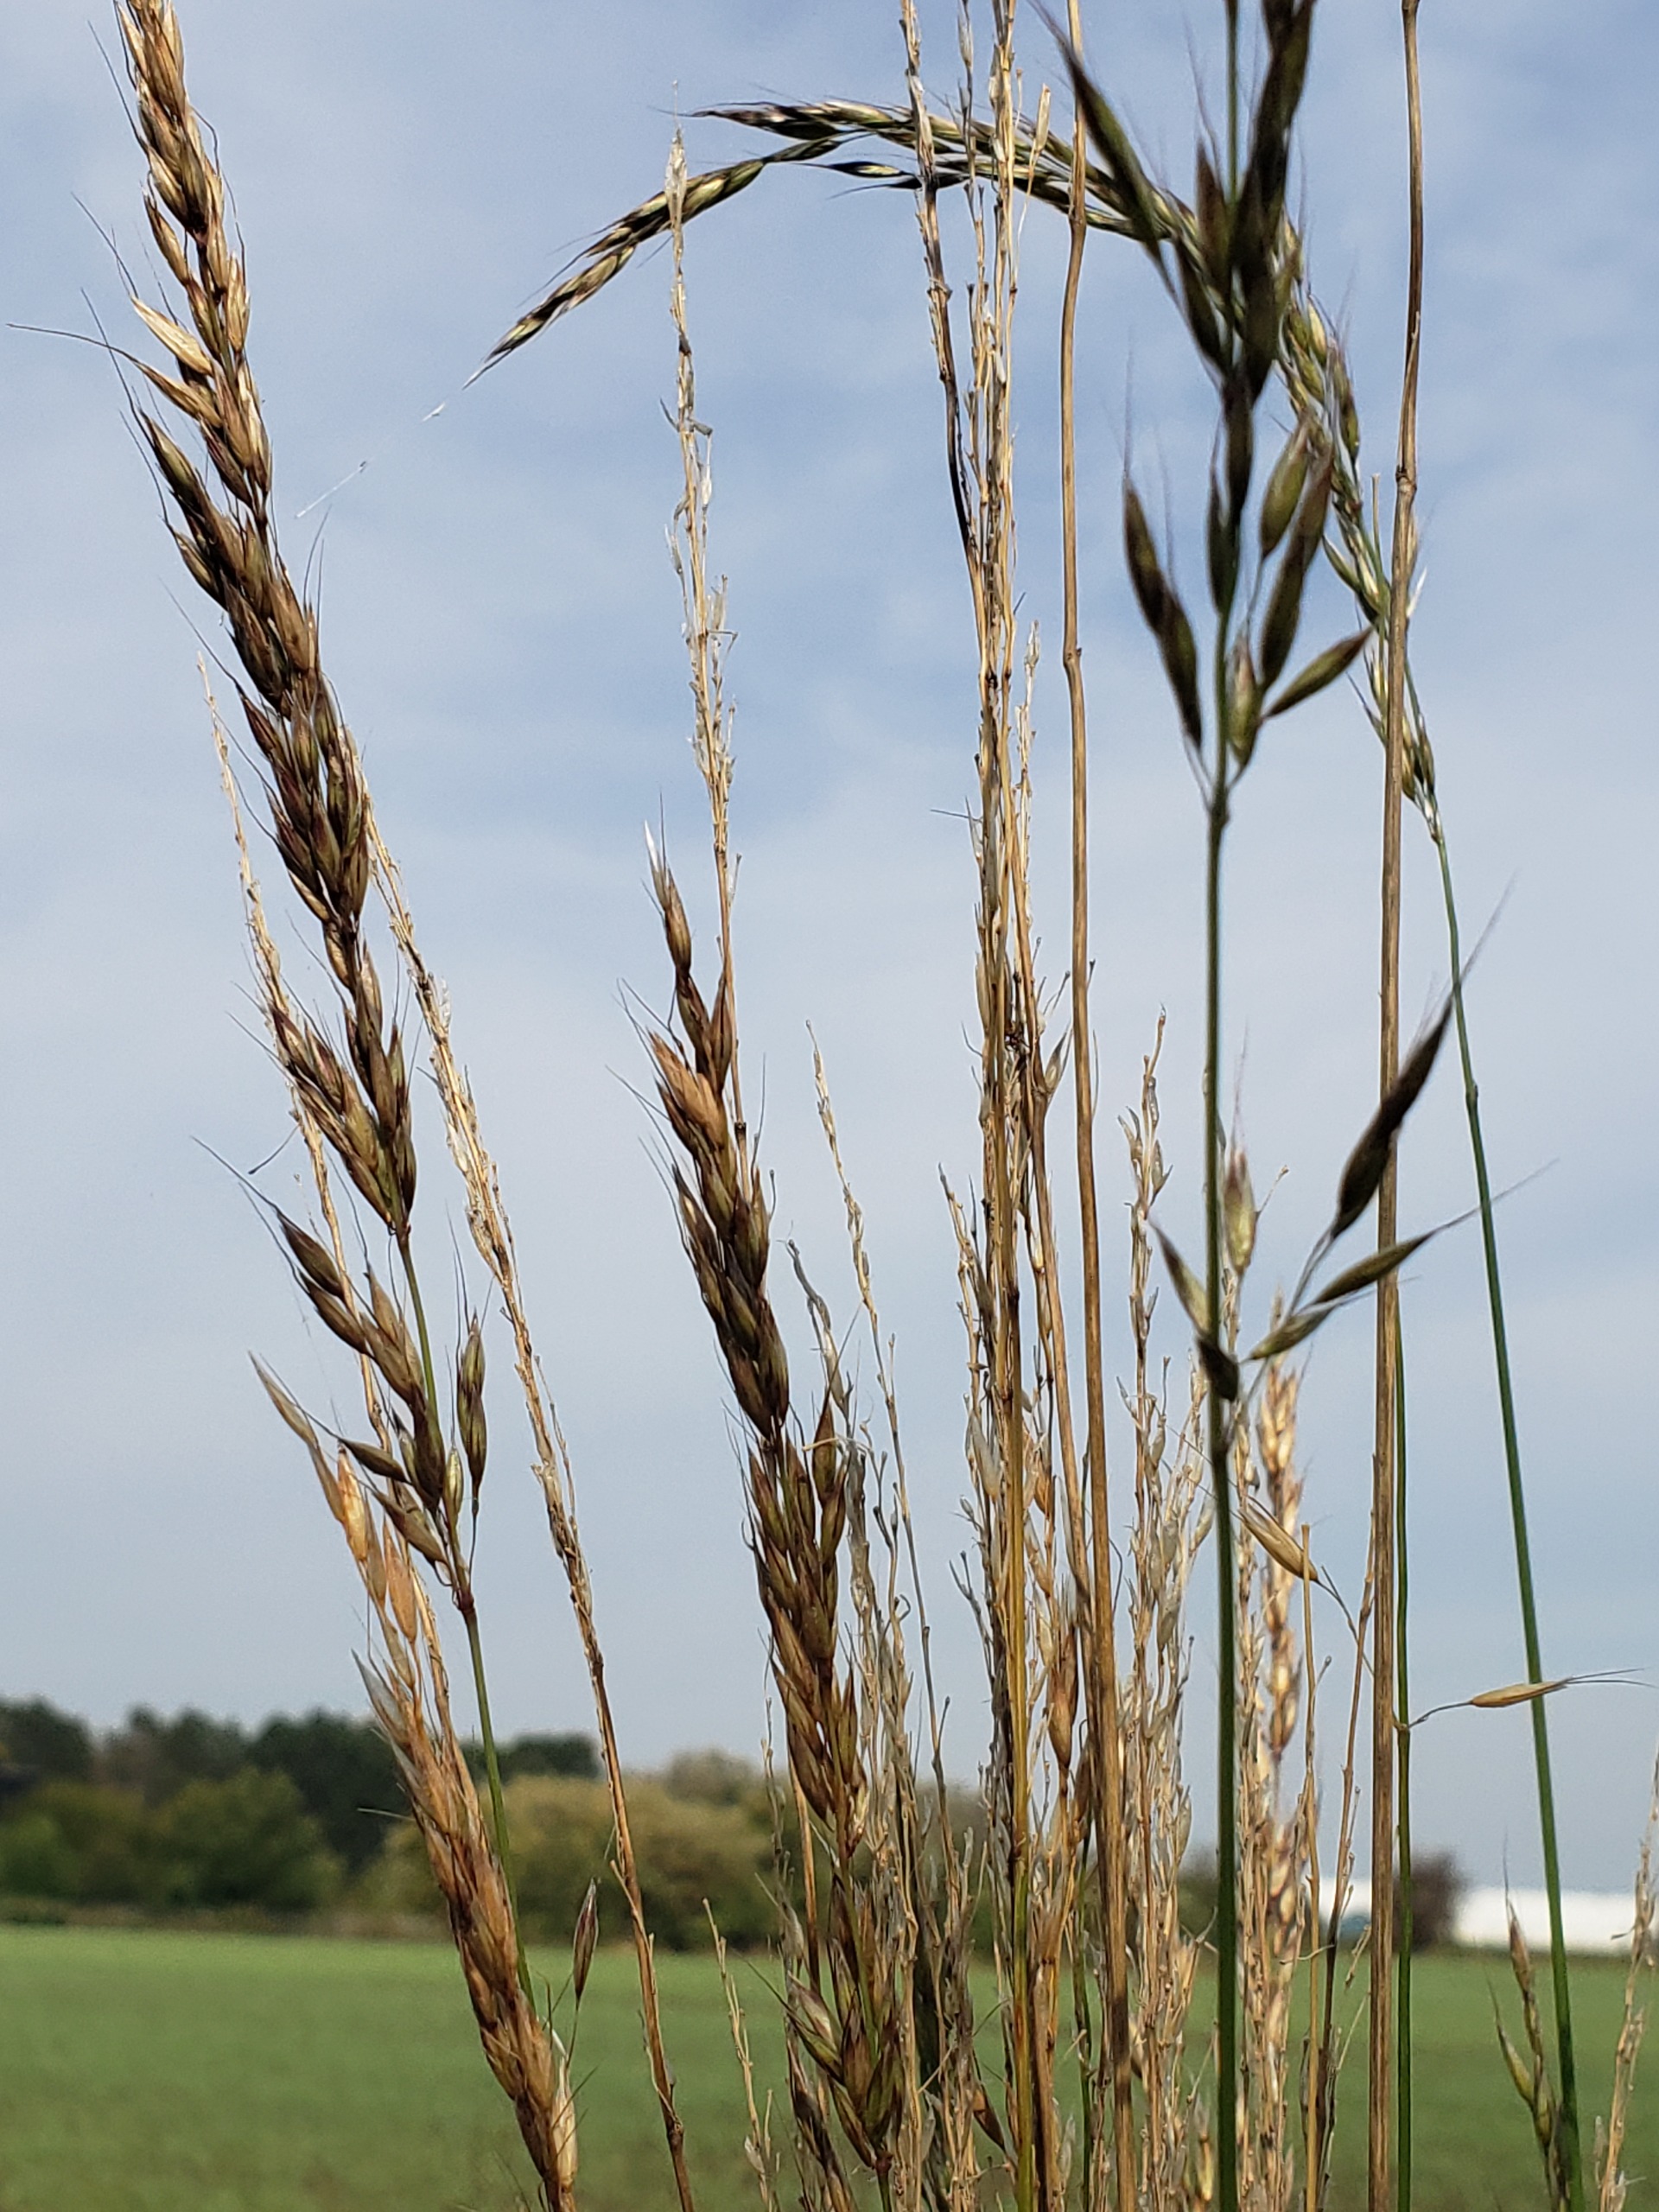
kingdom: Plantae
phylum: Tracheophyta
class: Liliopsida
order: Poales
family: Poaceae
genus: Arrhenatherum
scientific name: Arrhenatherum elatius
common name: Draphavre
